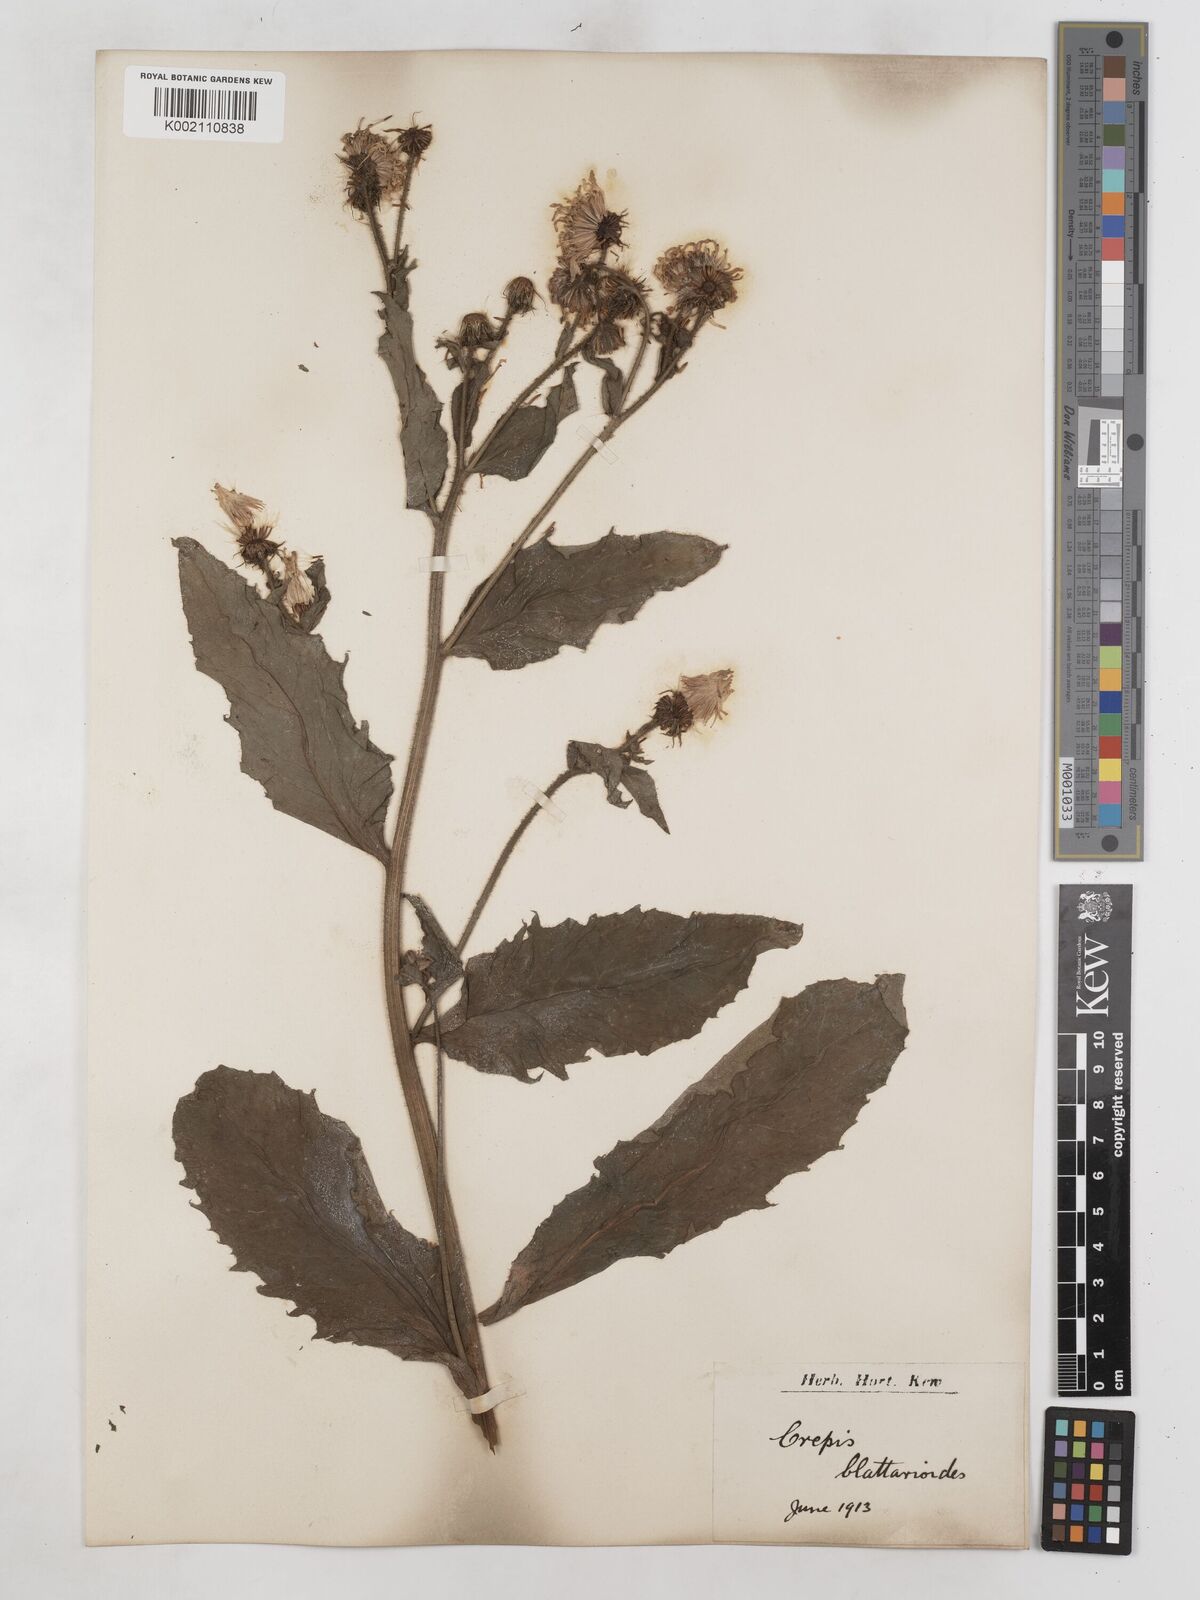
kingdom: Plantae
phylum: Tracheophyta
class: Magnoliopsida
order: Asterales
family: Asteraceae
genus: Crepis
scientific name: Crepis blattarioides
